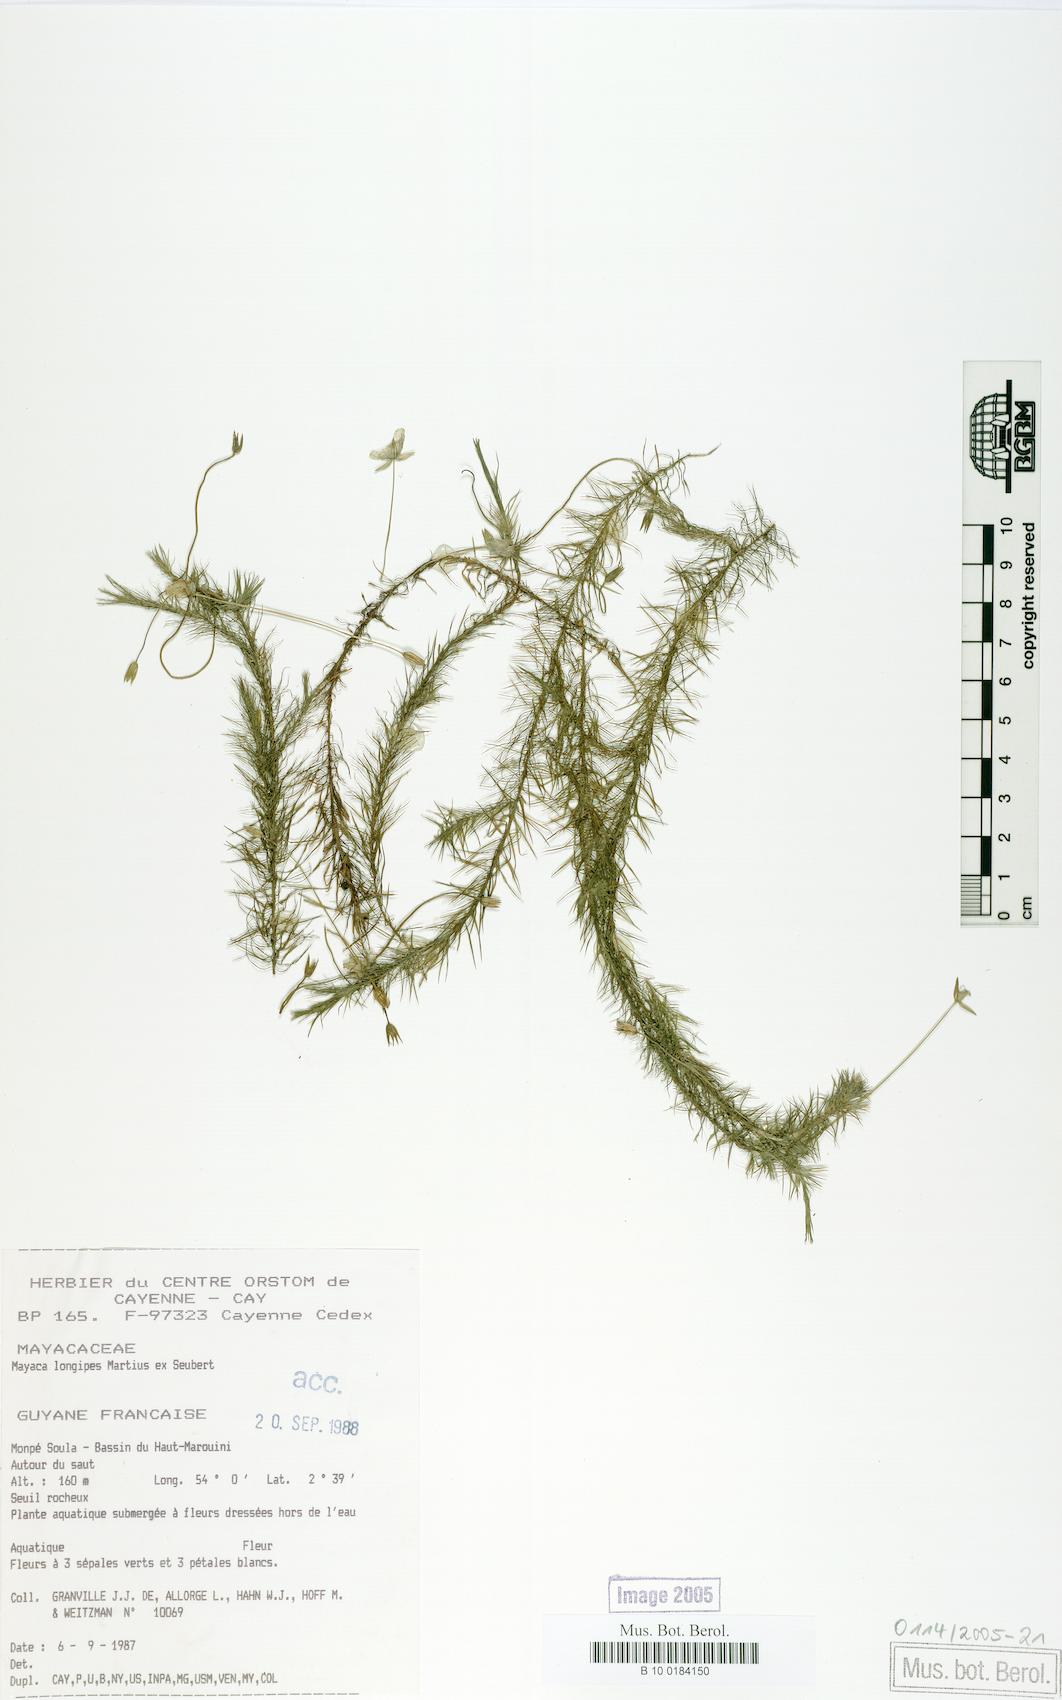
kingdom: Plantae
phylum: Tracheophyta
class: Liliopsida
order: Poales
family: Mayacaceae
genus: Mayaca
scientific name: Mayaca longipes
